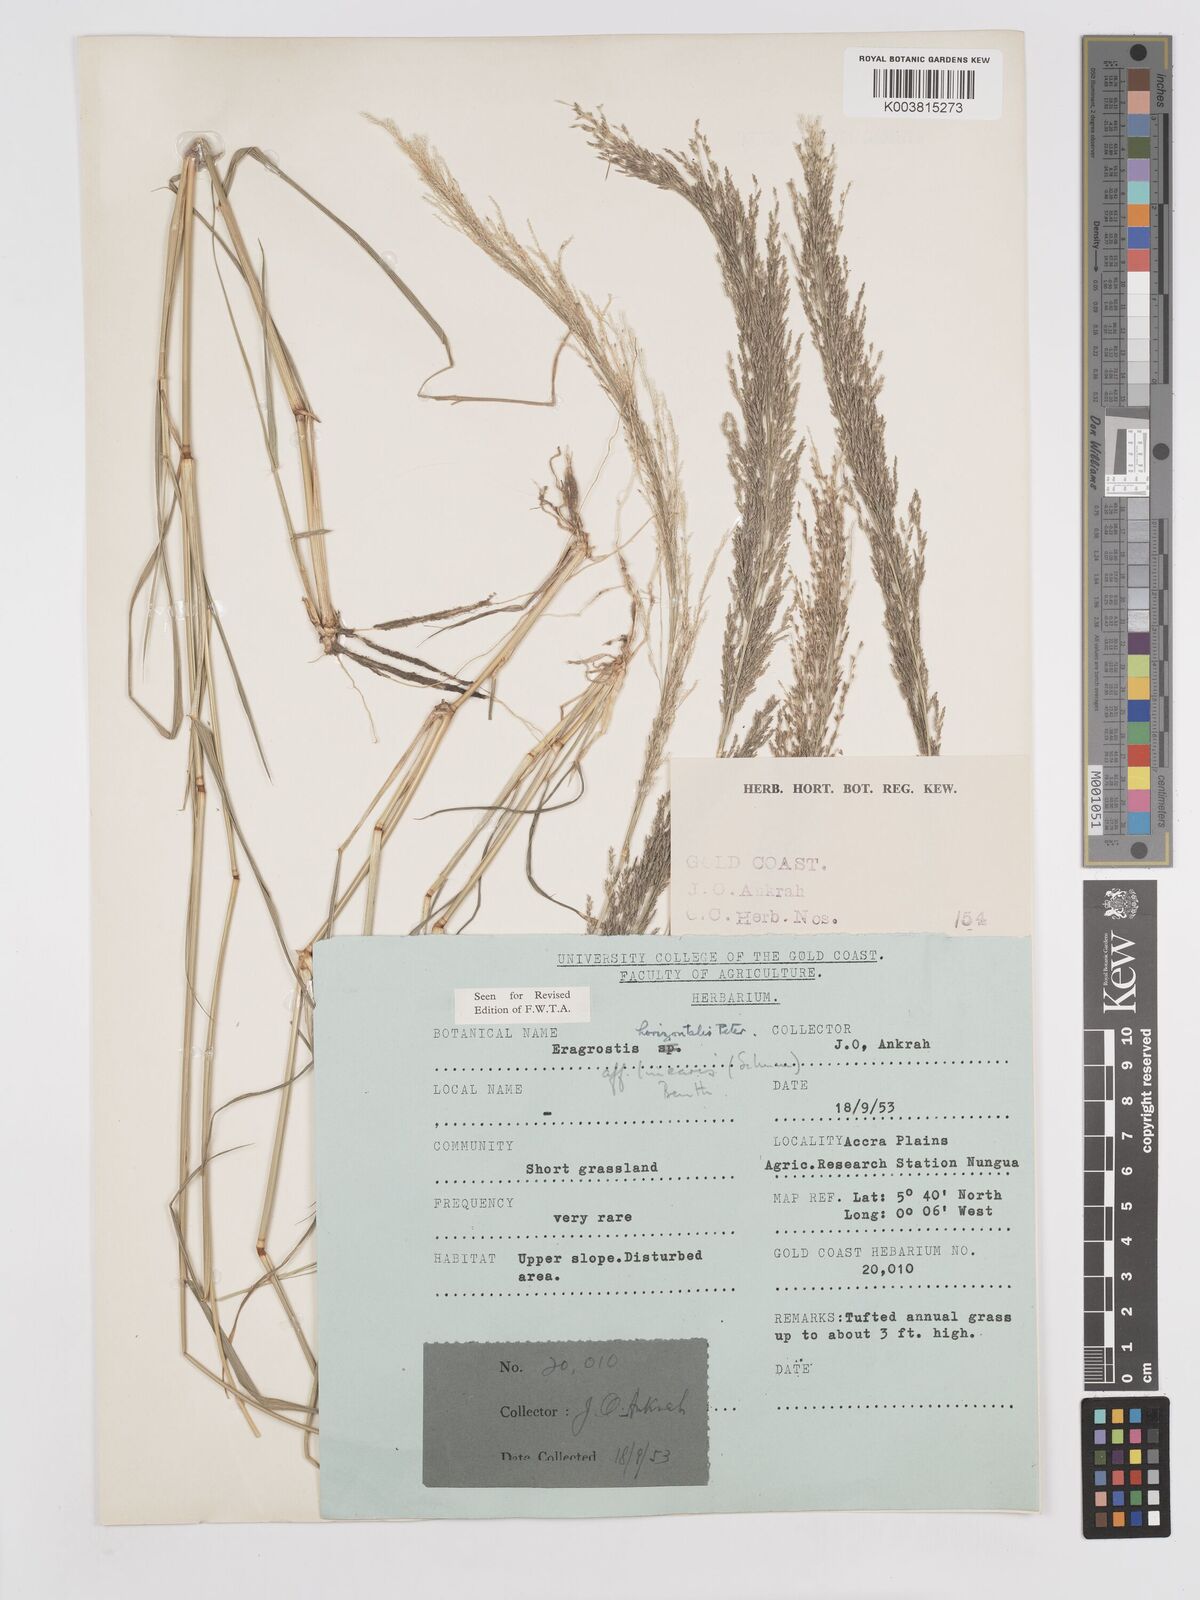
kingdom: Plantae
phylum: Tracheophyta
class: Liliopsida
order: Poales
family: Poaceae
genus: Eragrostis
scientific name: Eragrostis cylindriflora
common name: Cylinderflower lovegrass
